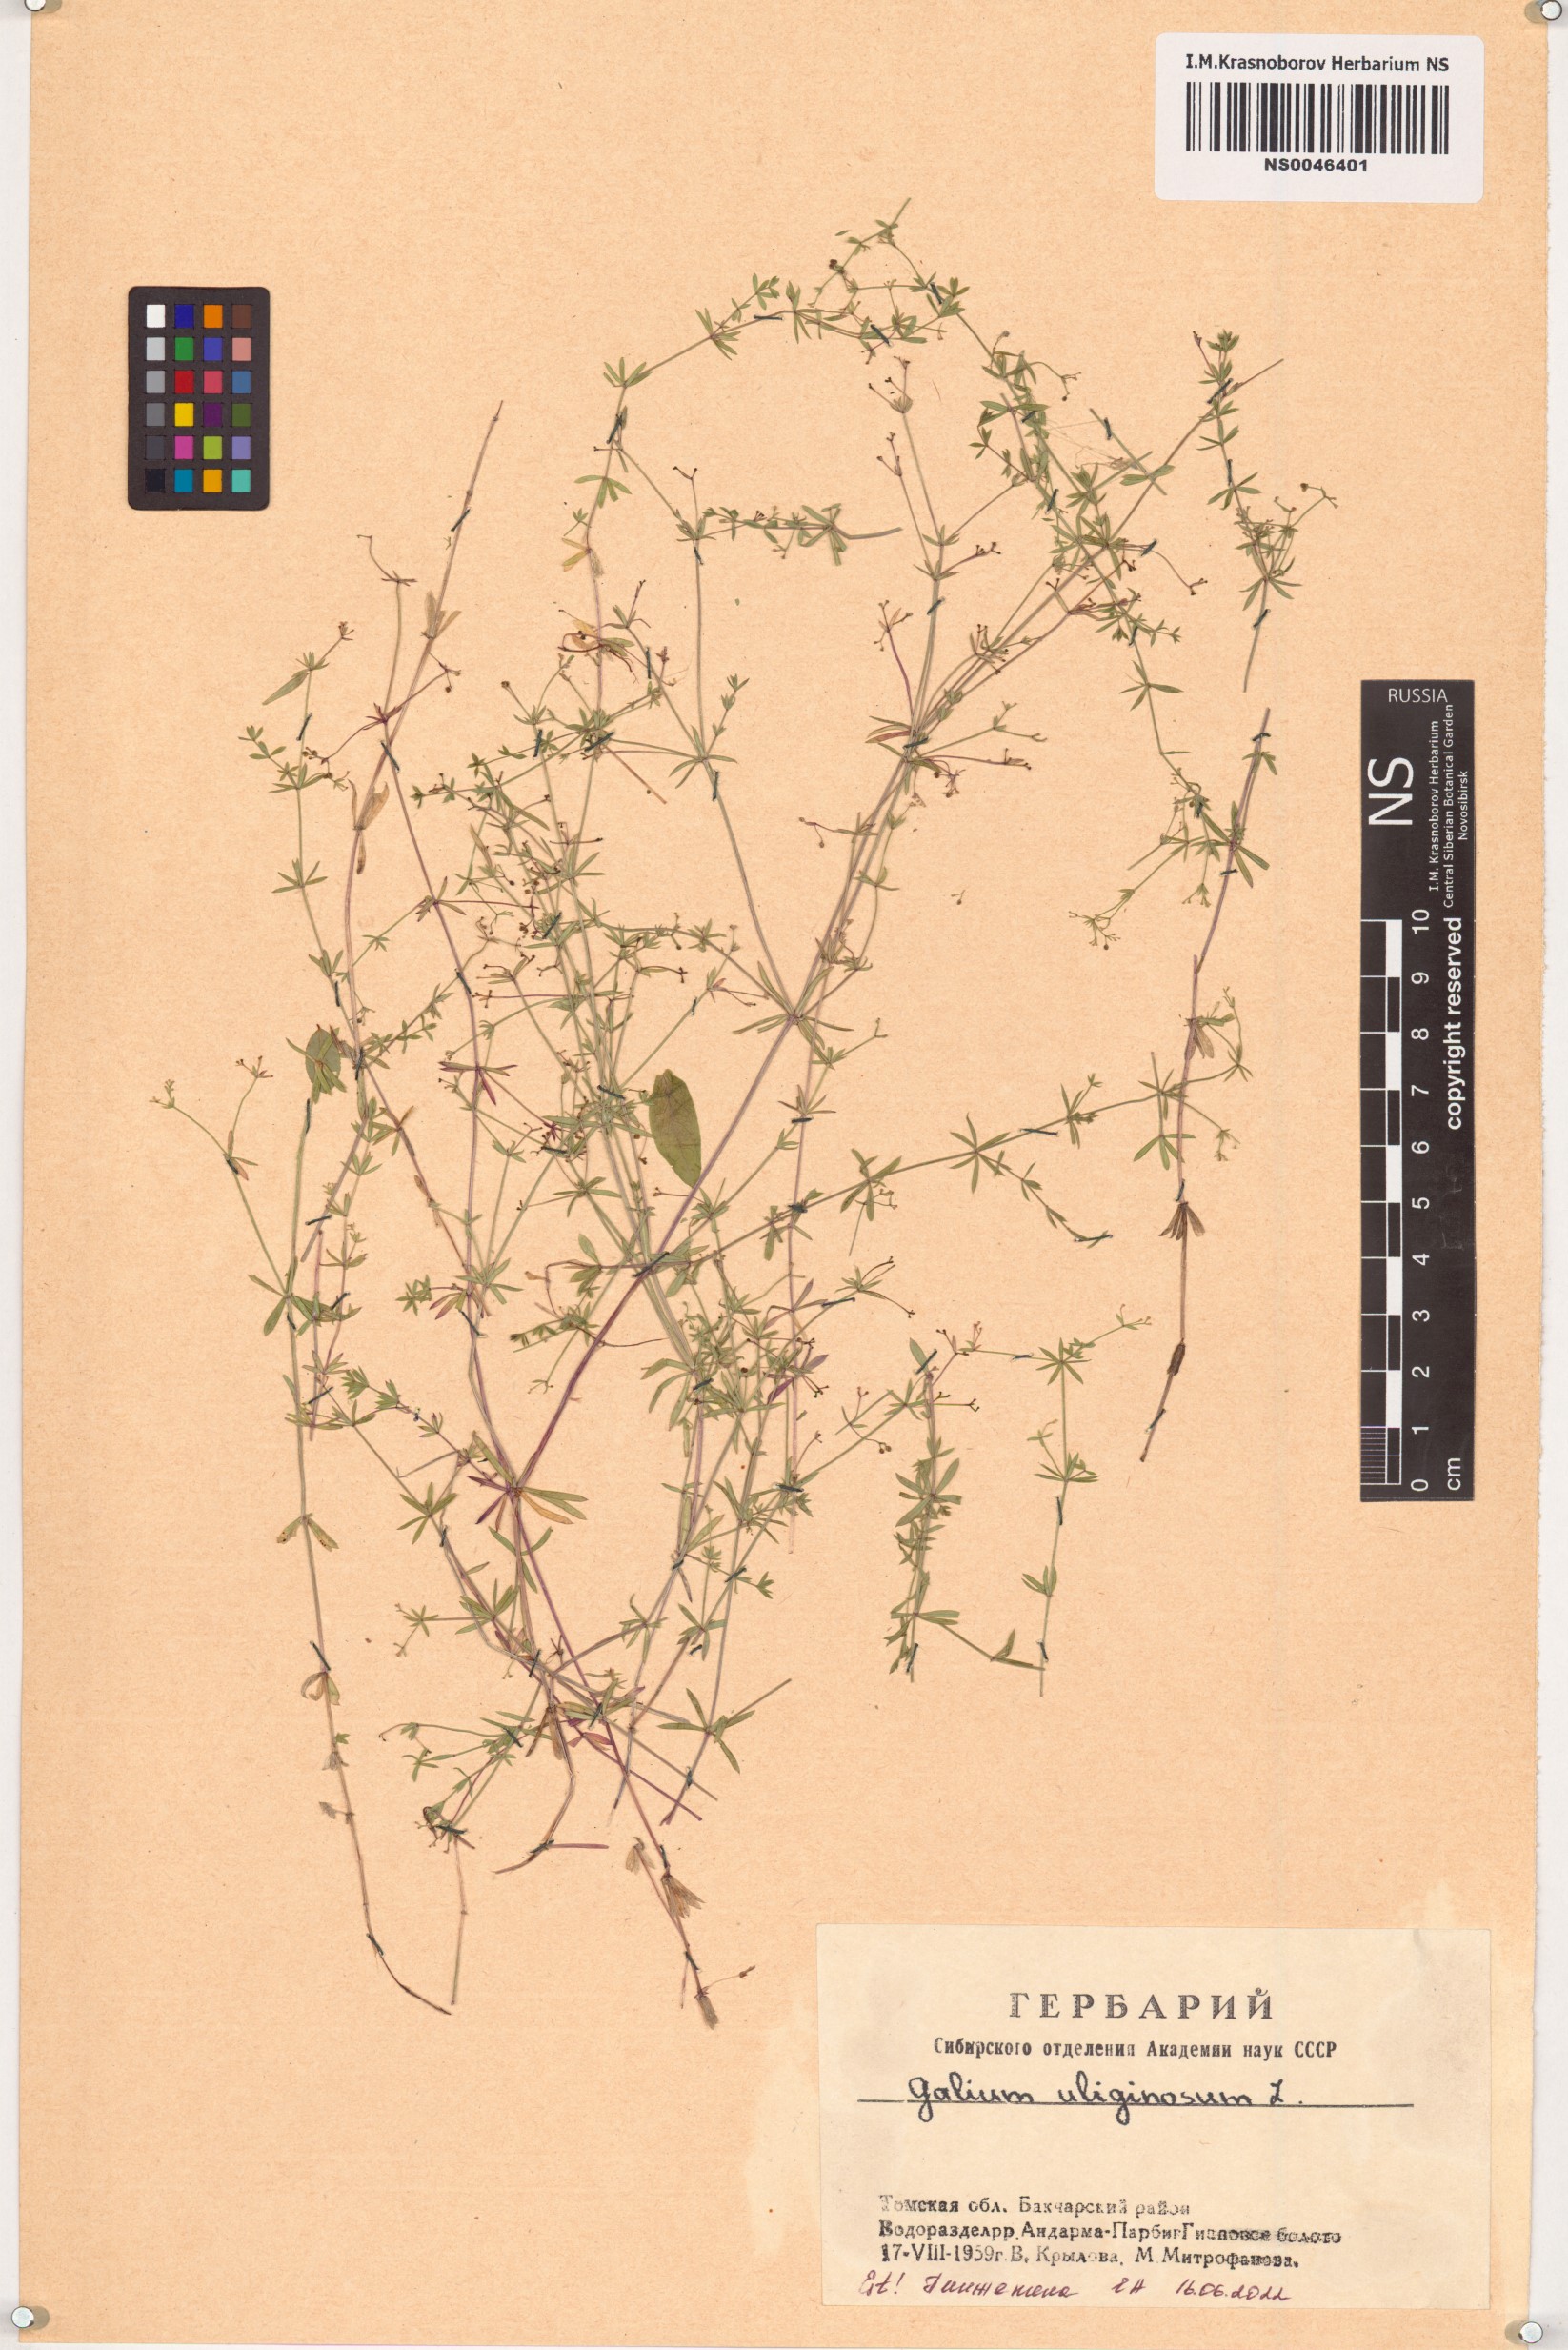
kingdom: Plantae
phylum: Tracheophyta
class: Magnoliopsida
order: Gentianales
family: Rubiaceae
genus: Galium
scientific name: Galium uliginosum
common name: Fen bedstraw
